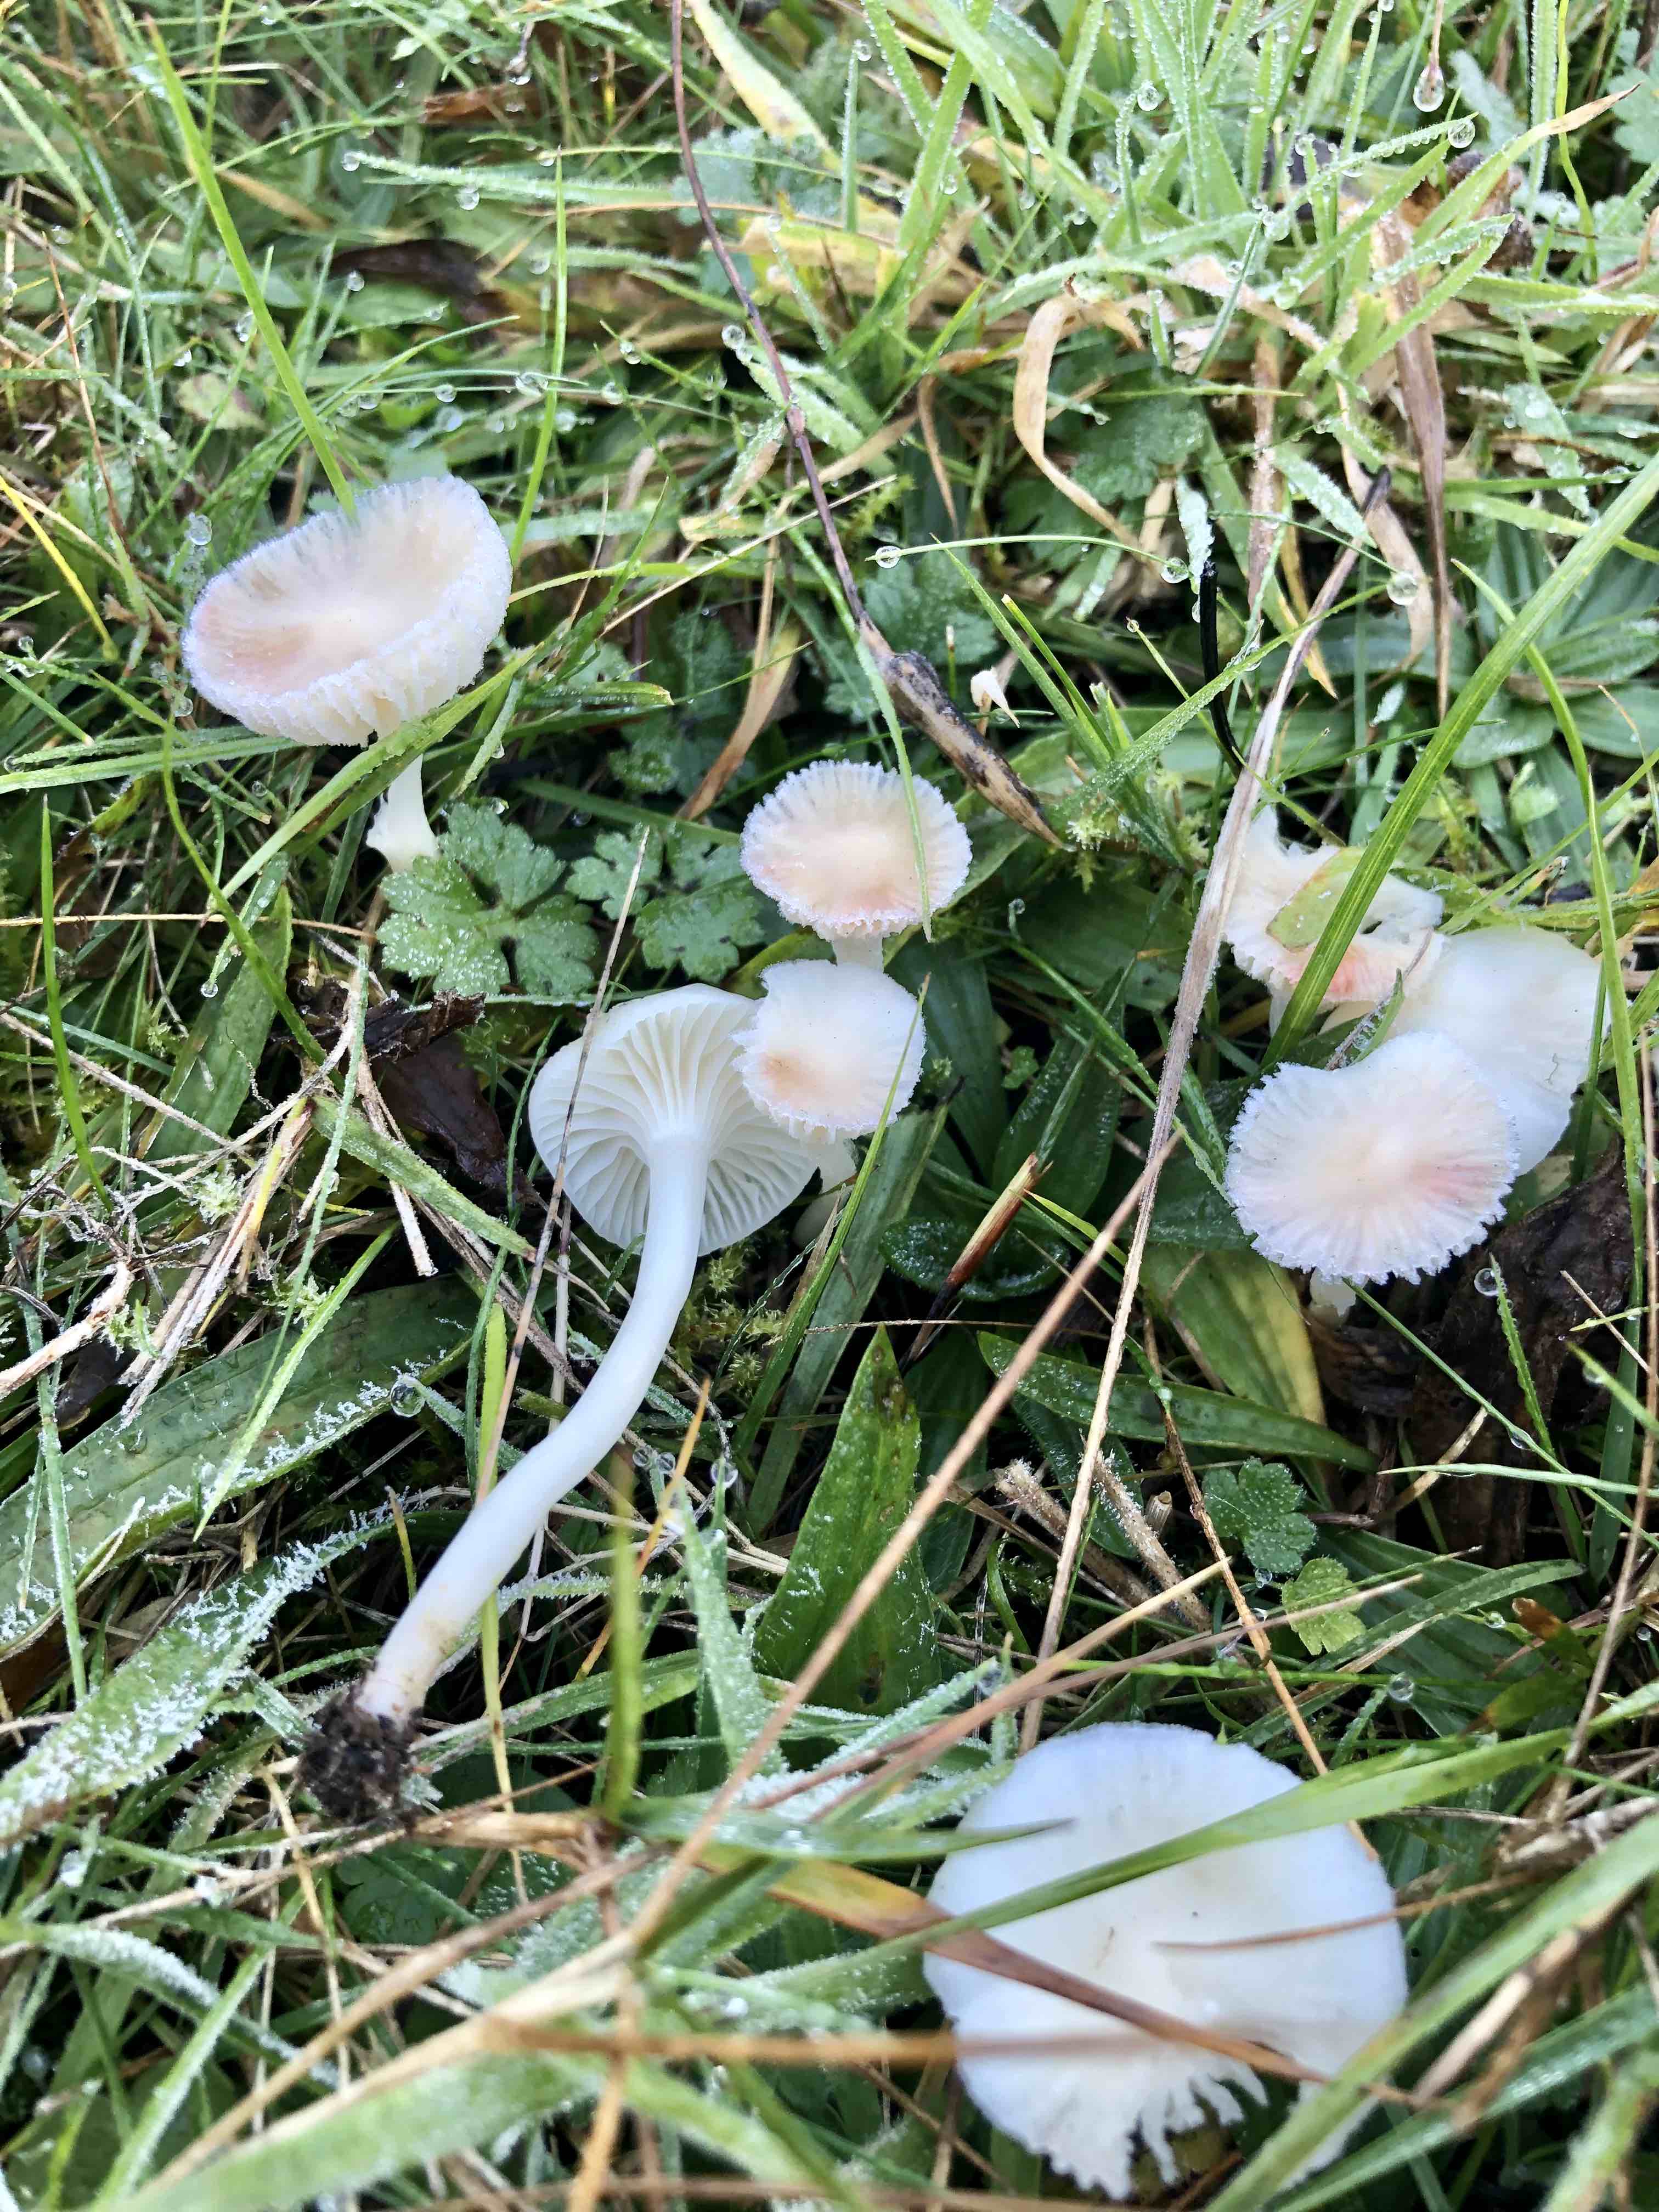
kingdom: Fungi
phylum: Basidiomycota
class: Agaricomycetes
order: Agaricales
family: Hygrophoraceae
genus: Cuphophyllus
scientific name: Cuphophyllus virgineus
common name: snehvid vokshat
